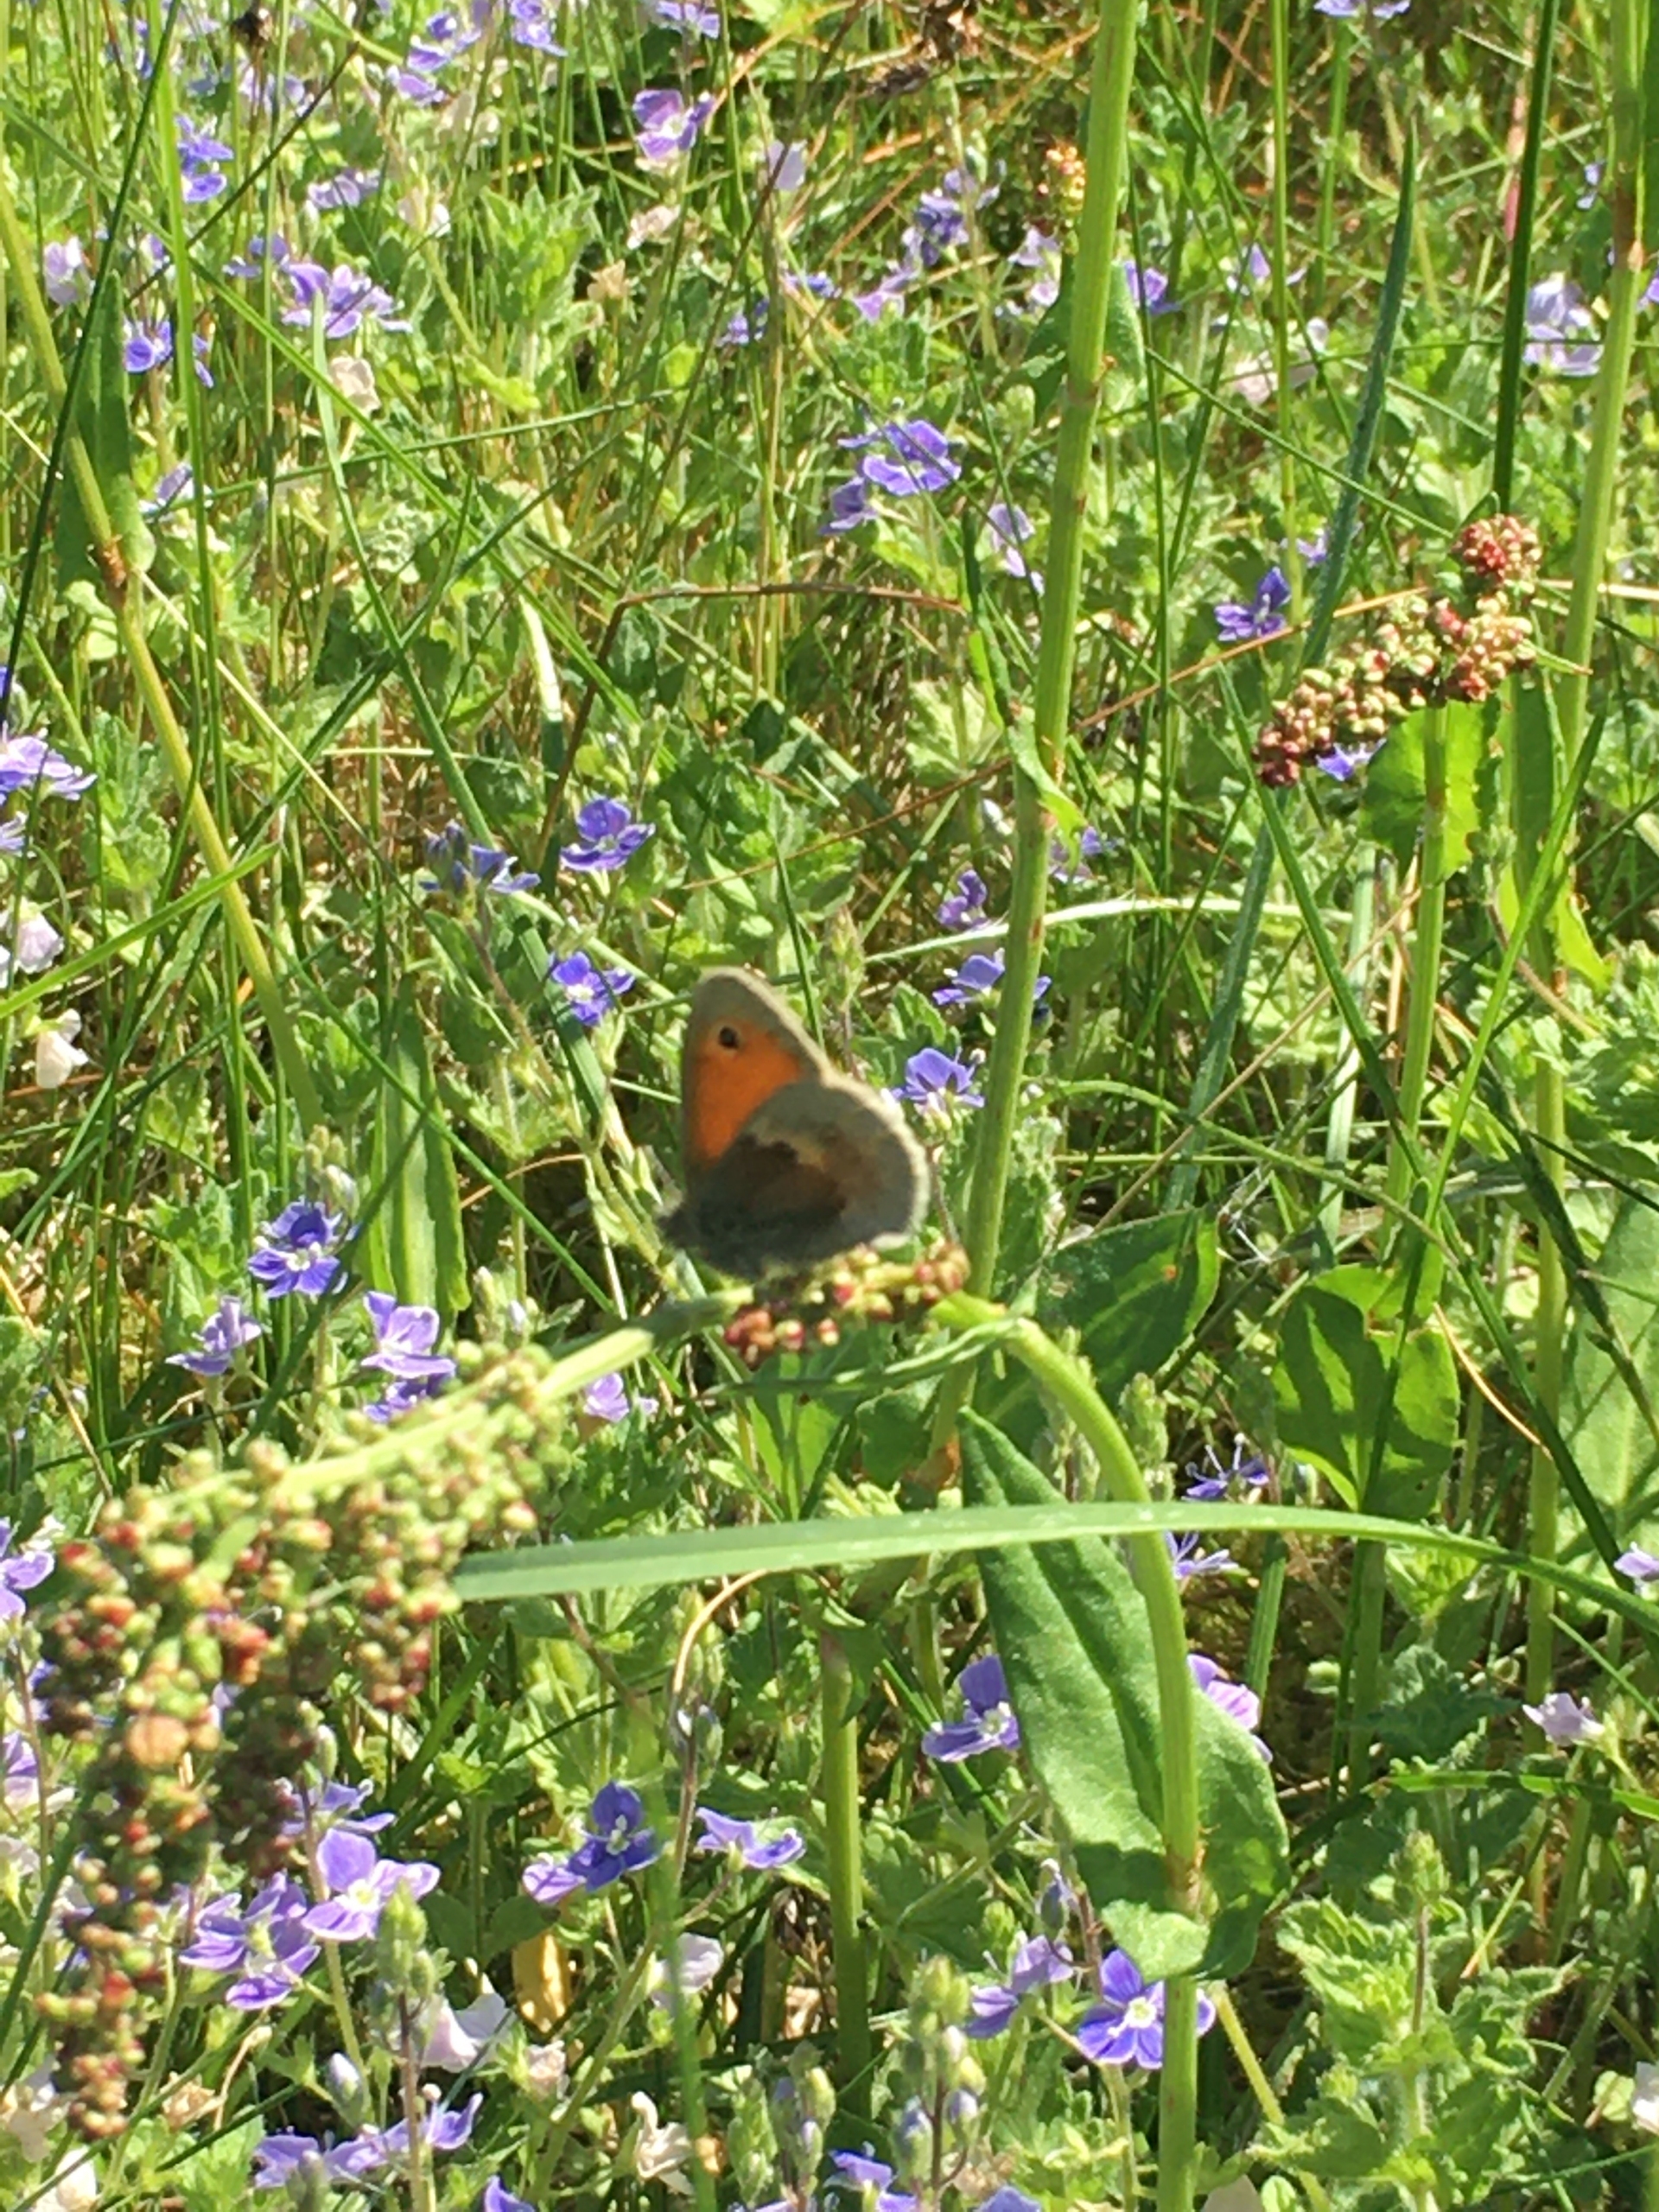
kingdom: Animalia
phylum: Arthropoda
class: Insecta
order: Lepidoptera
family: Nymphalidae
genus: Coenonympha
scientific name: Coenonympha pamphilus
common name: Okkergul randøje
